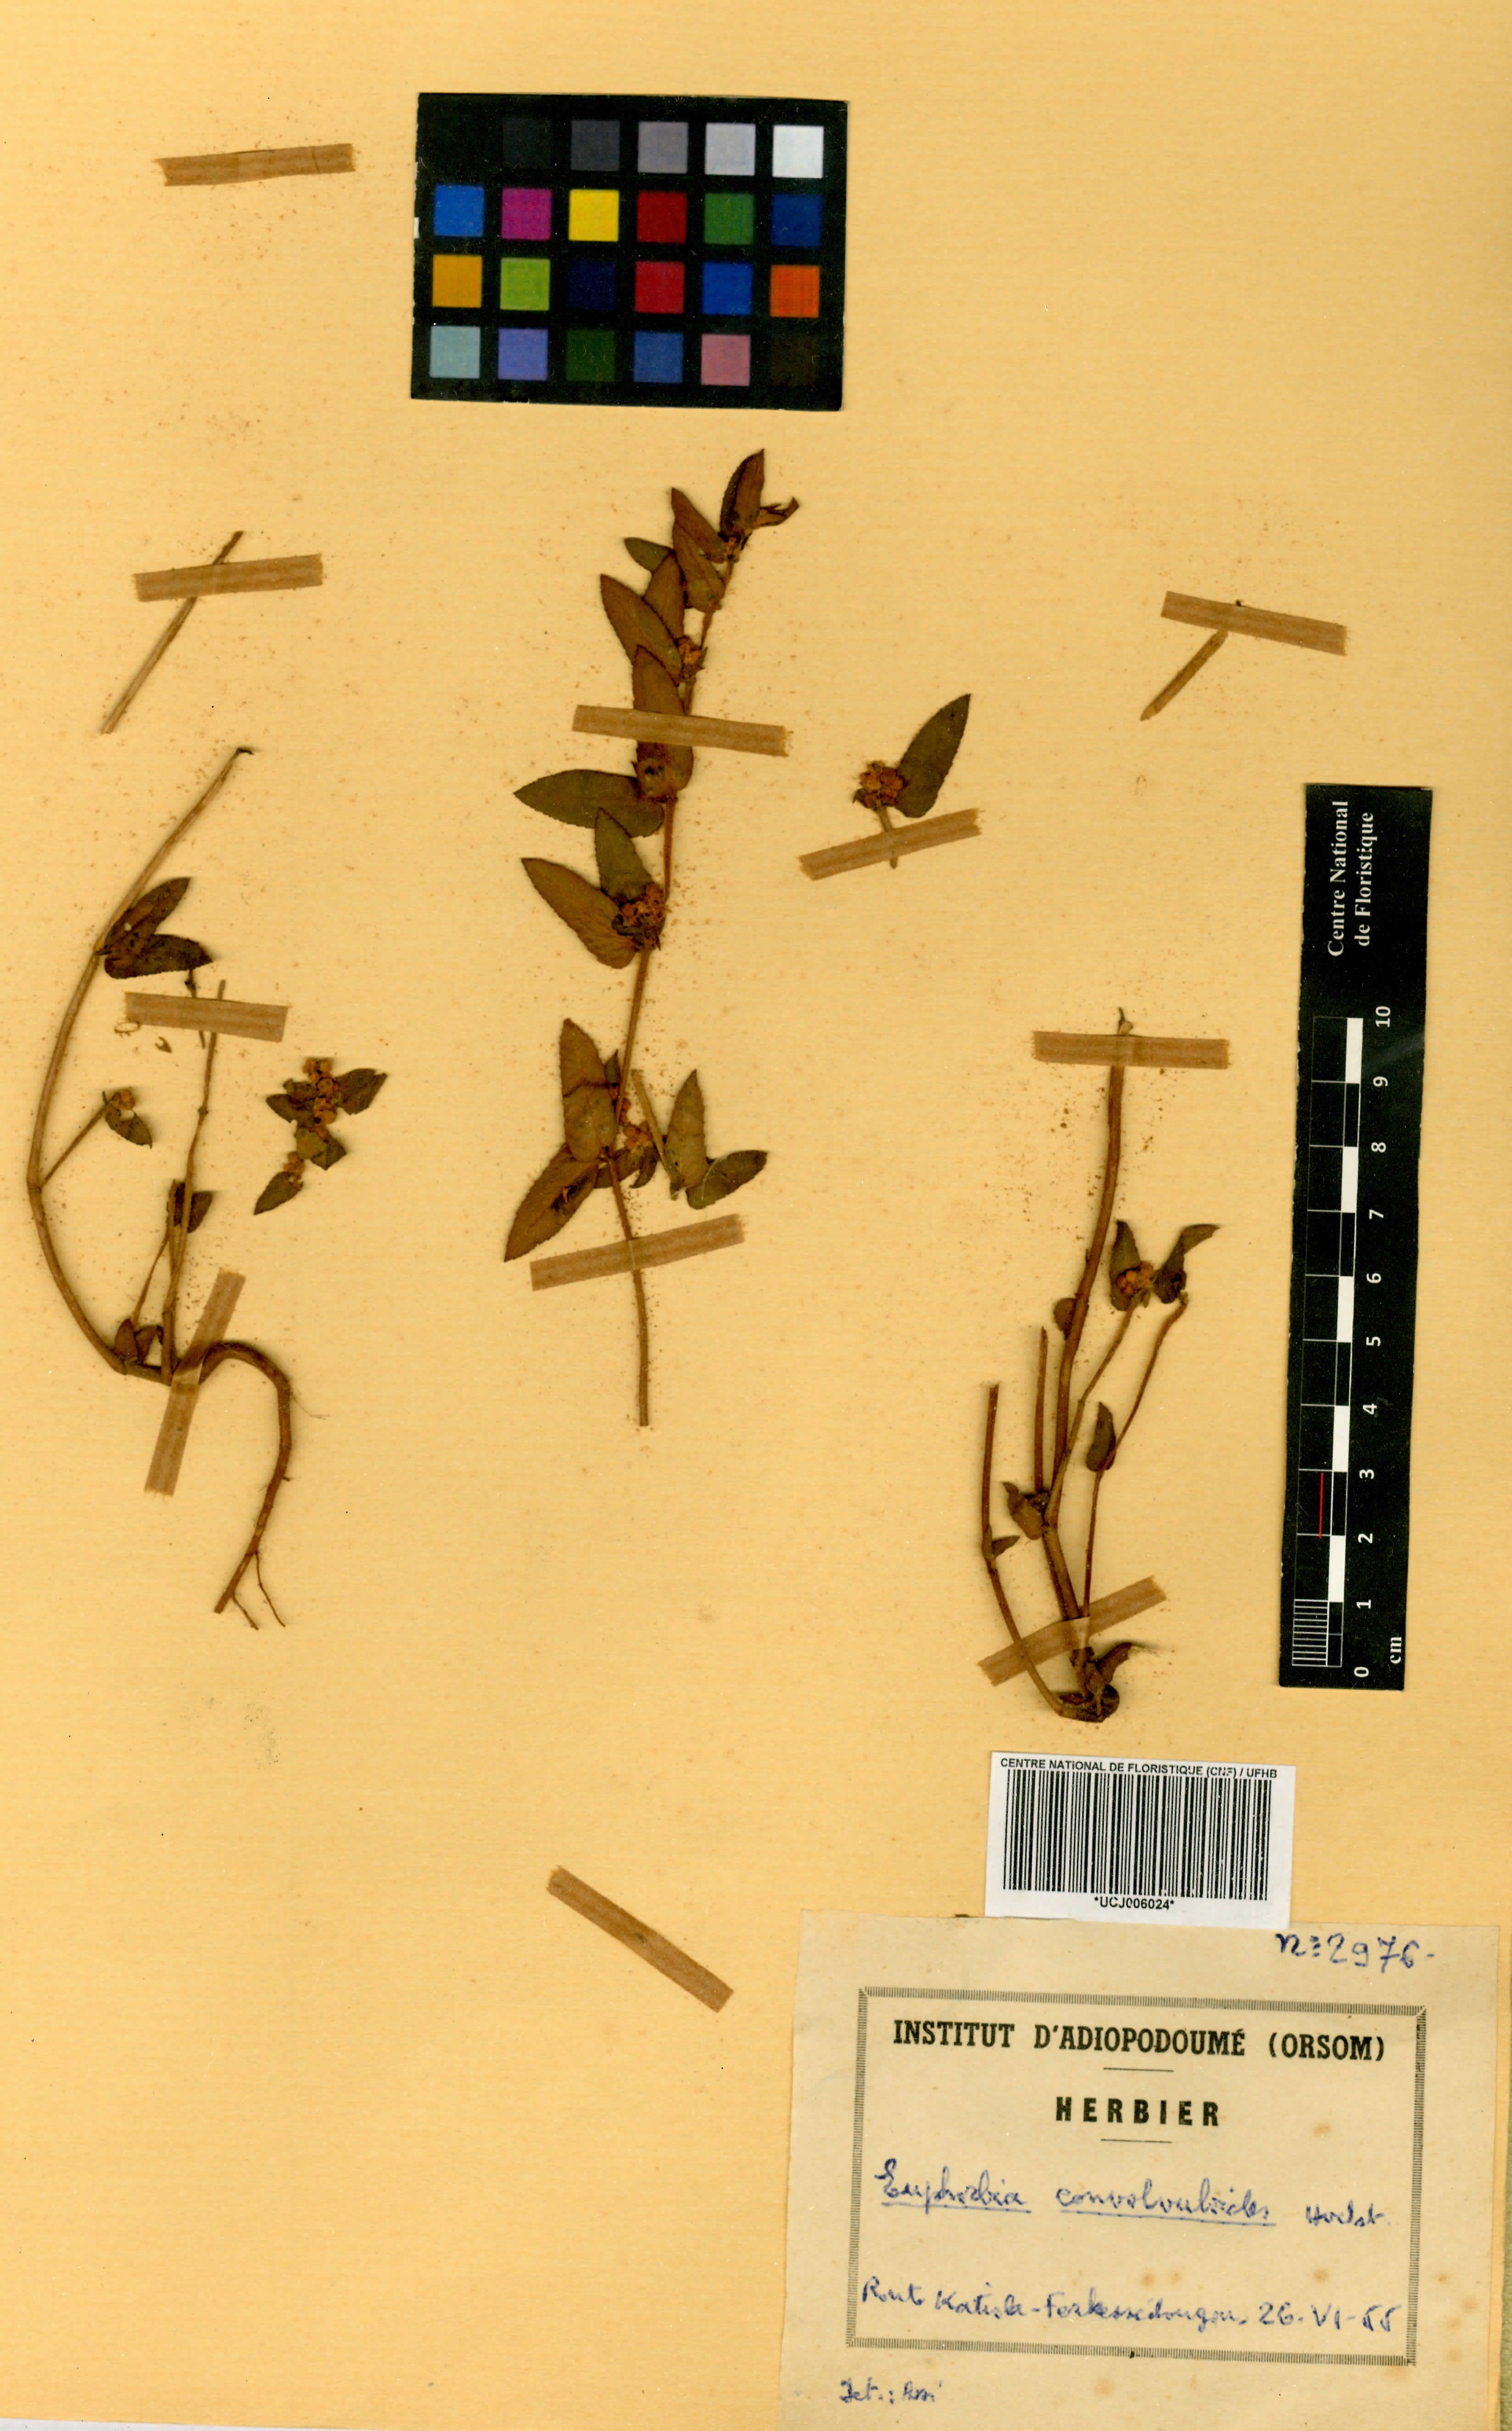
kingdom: Plantae
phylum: Tracheophyta
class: Magnoliopsida
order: Malpighiales
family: Euphorbiaceae
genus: Euphorbia
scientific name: Euphorbia convolvuloides
